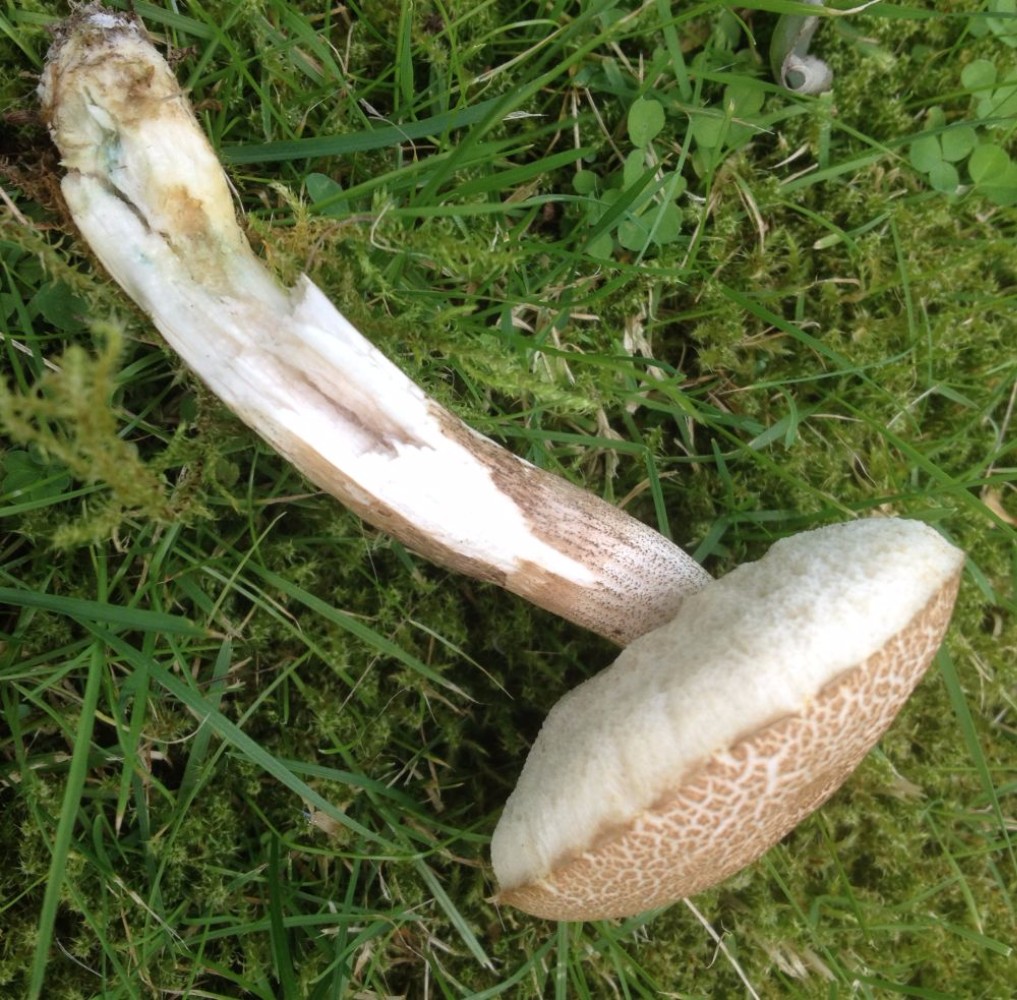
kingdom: Fungi
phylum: Basidiomycota
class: Agaricomycetes
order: Boletales
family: Boletaceae
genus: Leccinum
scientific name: Leccinum cyaneobasileucum
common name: almindelig skælrørhat
